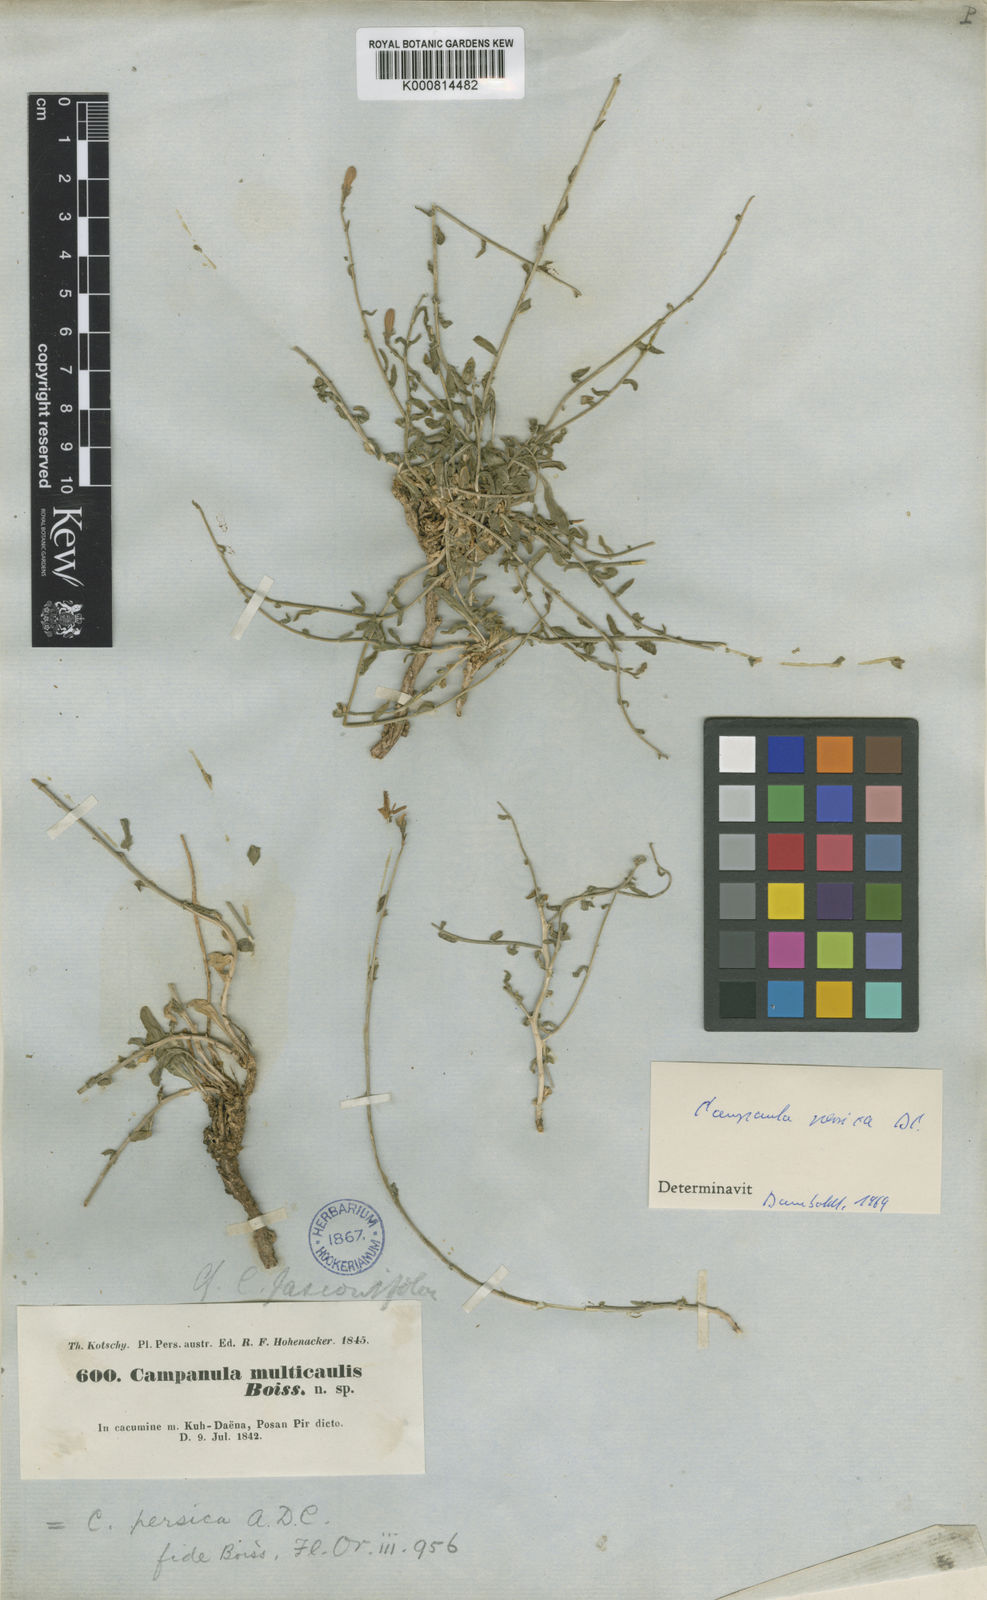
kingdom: Plantae
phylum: Tracheophyta
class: Magnoliopsida
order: Asterales
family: Campanulaceae
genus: Asyneuma
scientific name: Asyneuma persicum
